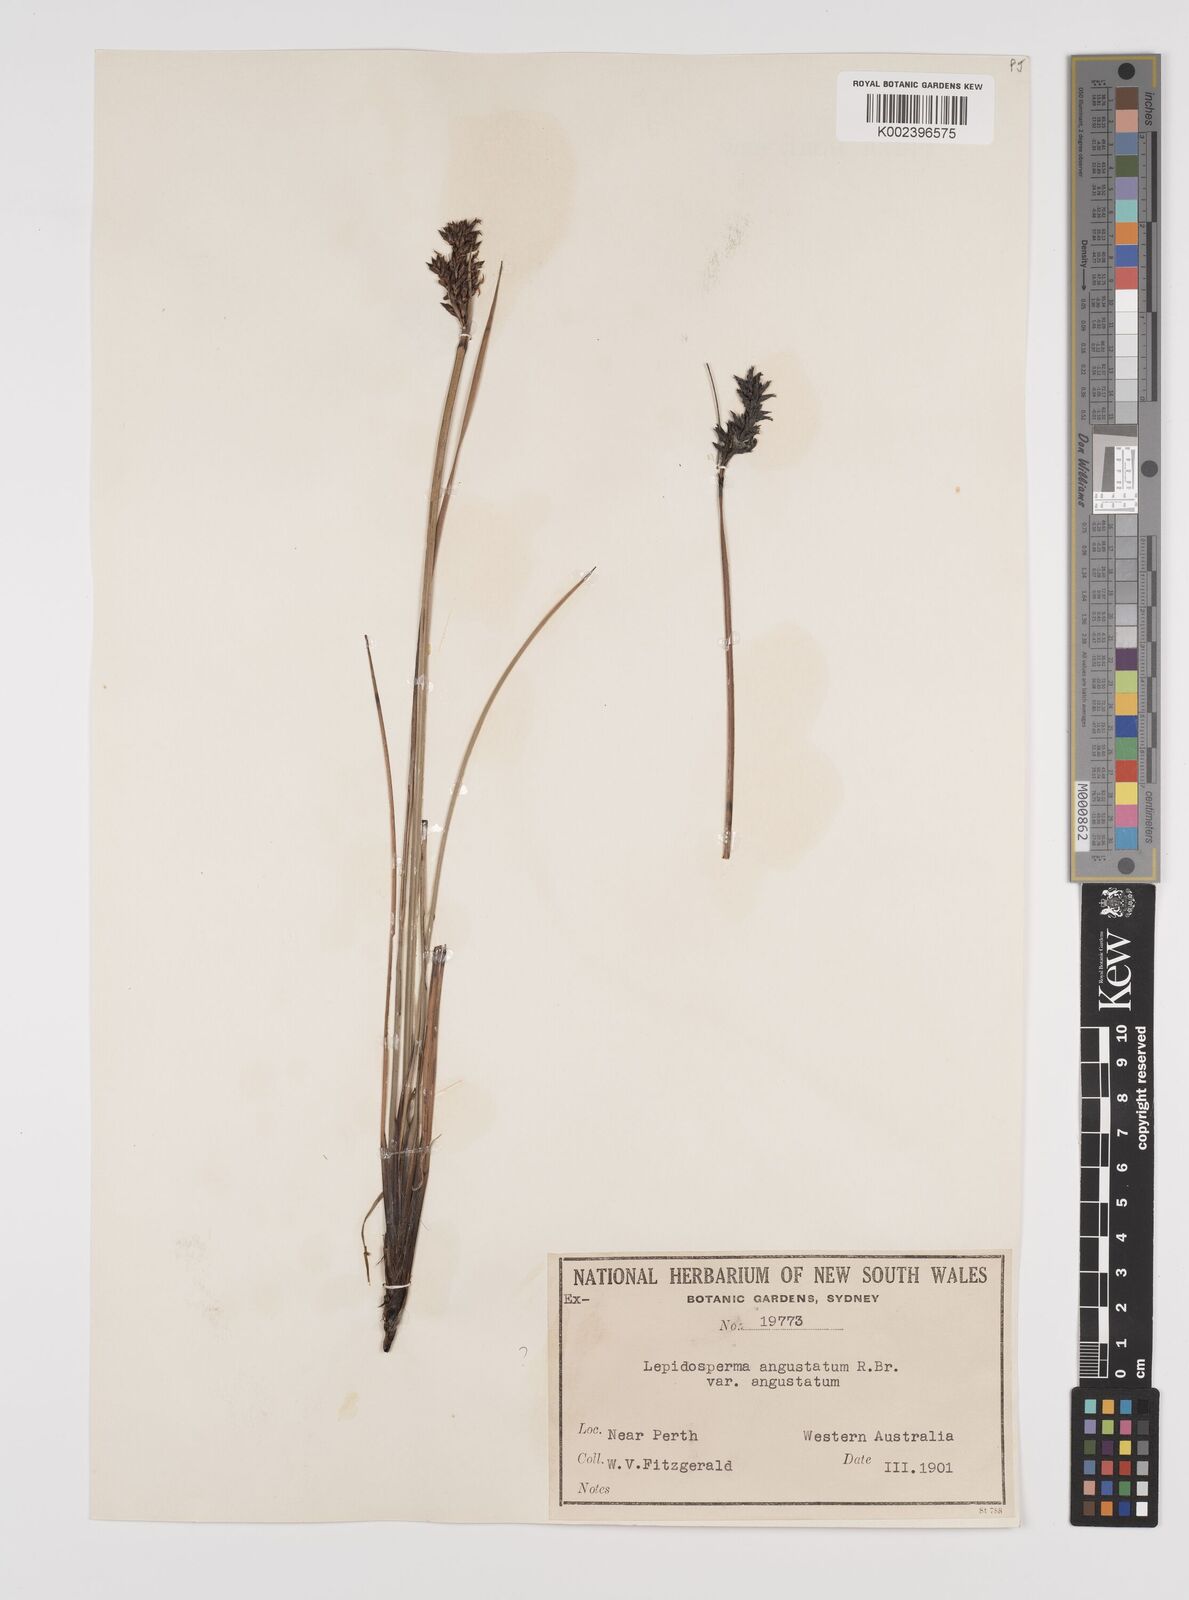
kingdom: Plantae
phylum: Tracheophyta
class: Liliopsida
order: Poales
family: Cyperaceae
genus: Lepidosperma
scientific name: Lepidosperma angustatum
